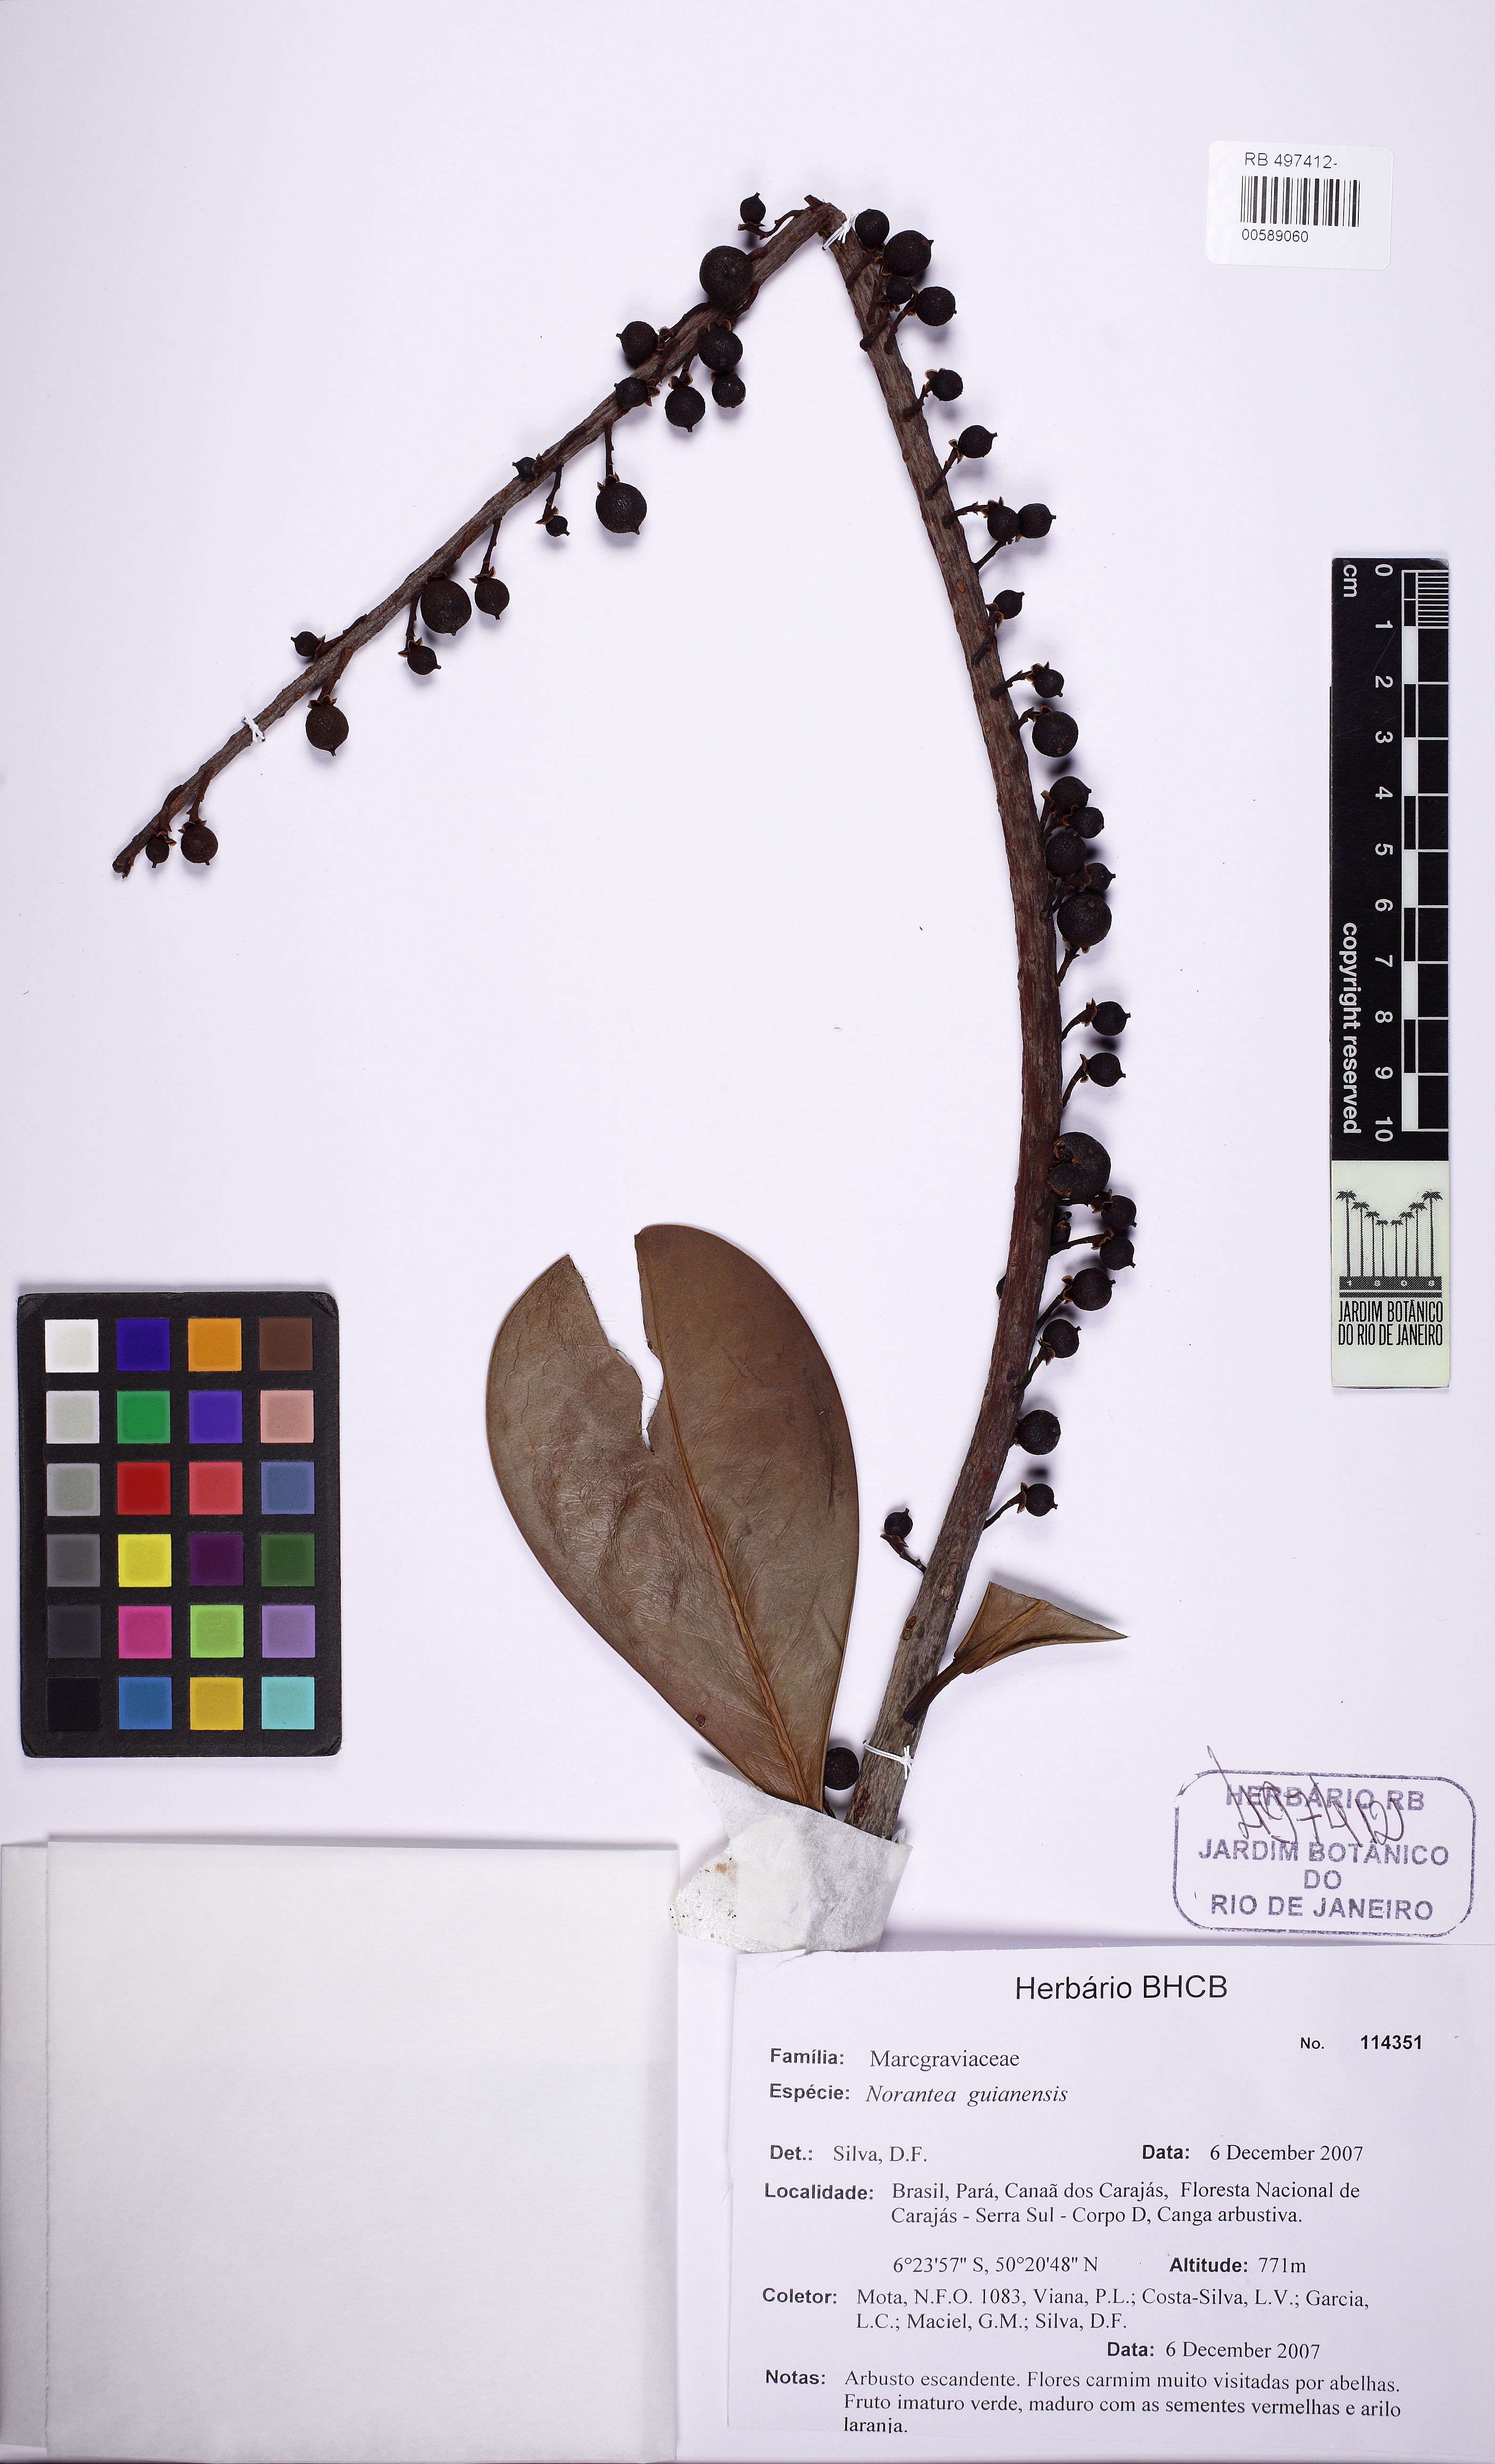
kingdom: Plantae
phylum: Tracheophyta
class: Magnoliopsida
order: Ericales
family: Marcgraviaceae
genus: Norantea
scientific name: Norantea guianensis
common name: Red hot poker vine
